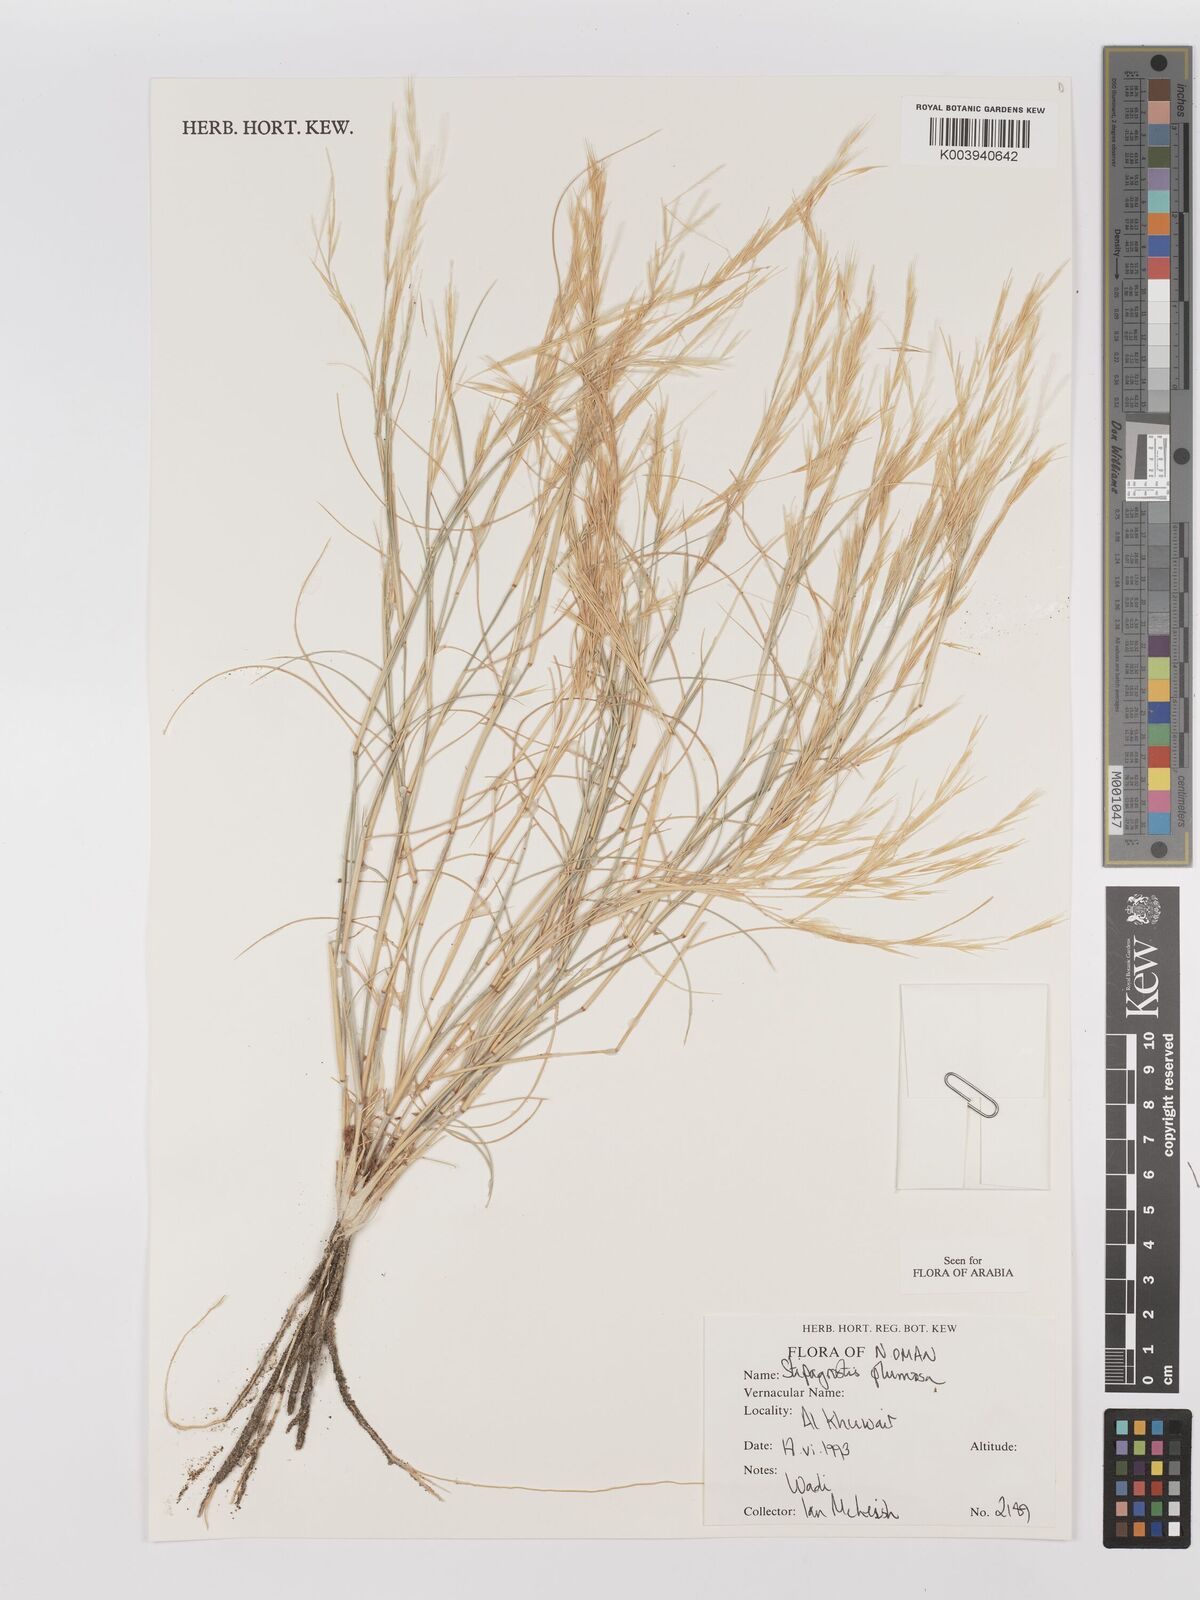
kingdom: Plantae
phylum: Tracheophyta
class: Liliopsida
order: Poales
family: Poaceae
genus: Stipagrostis
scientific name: Stipagrostis plumosa
